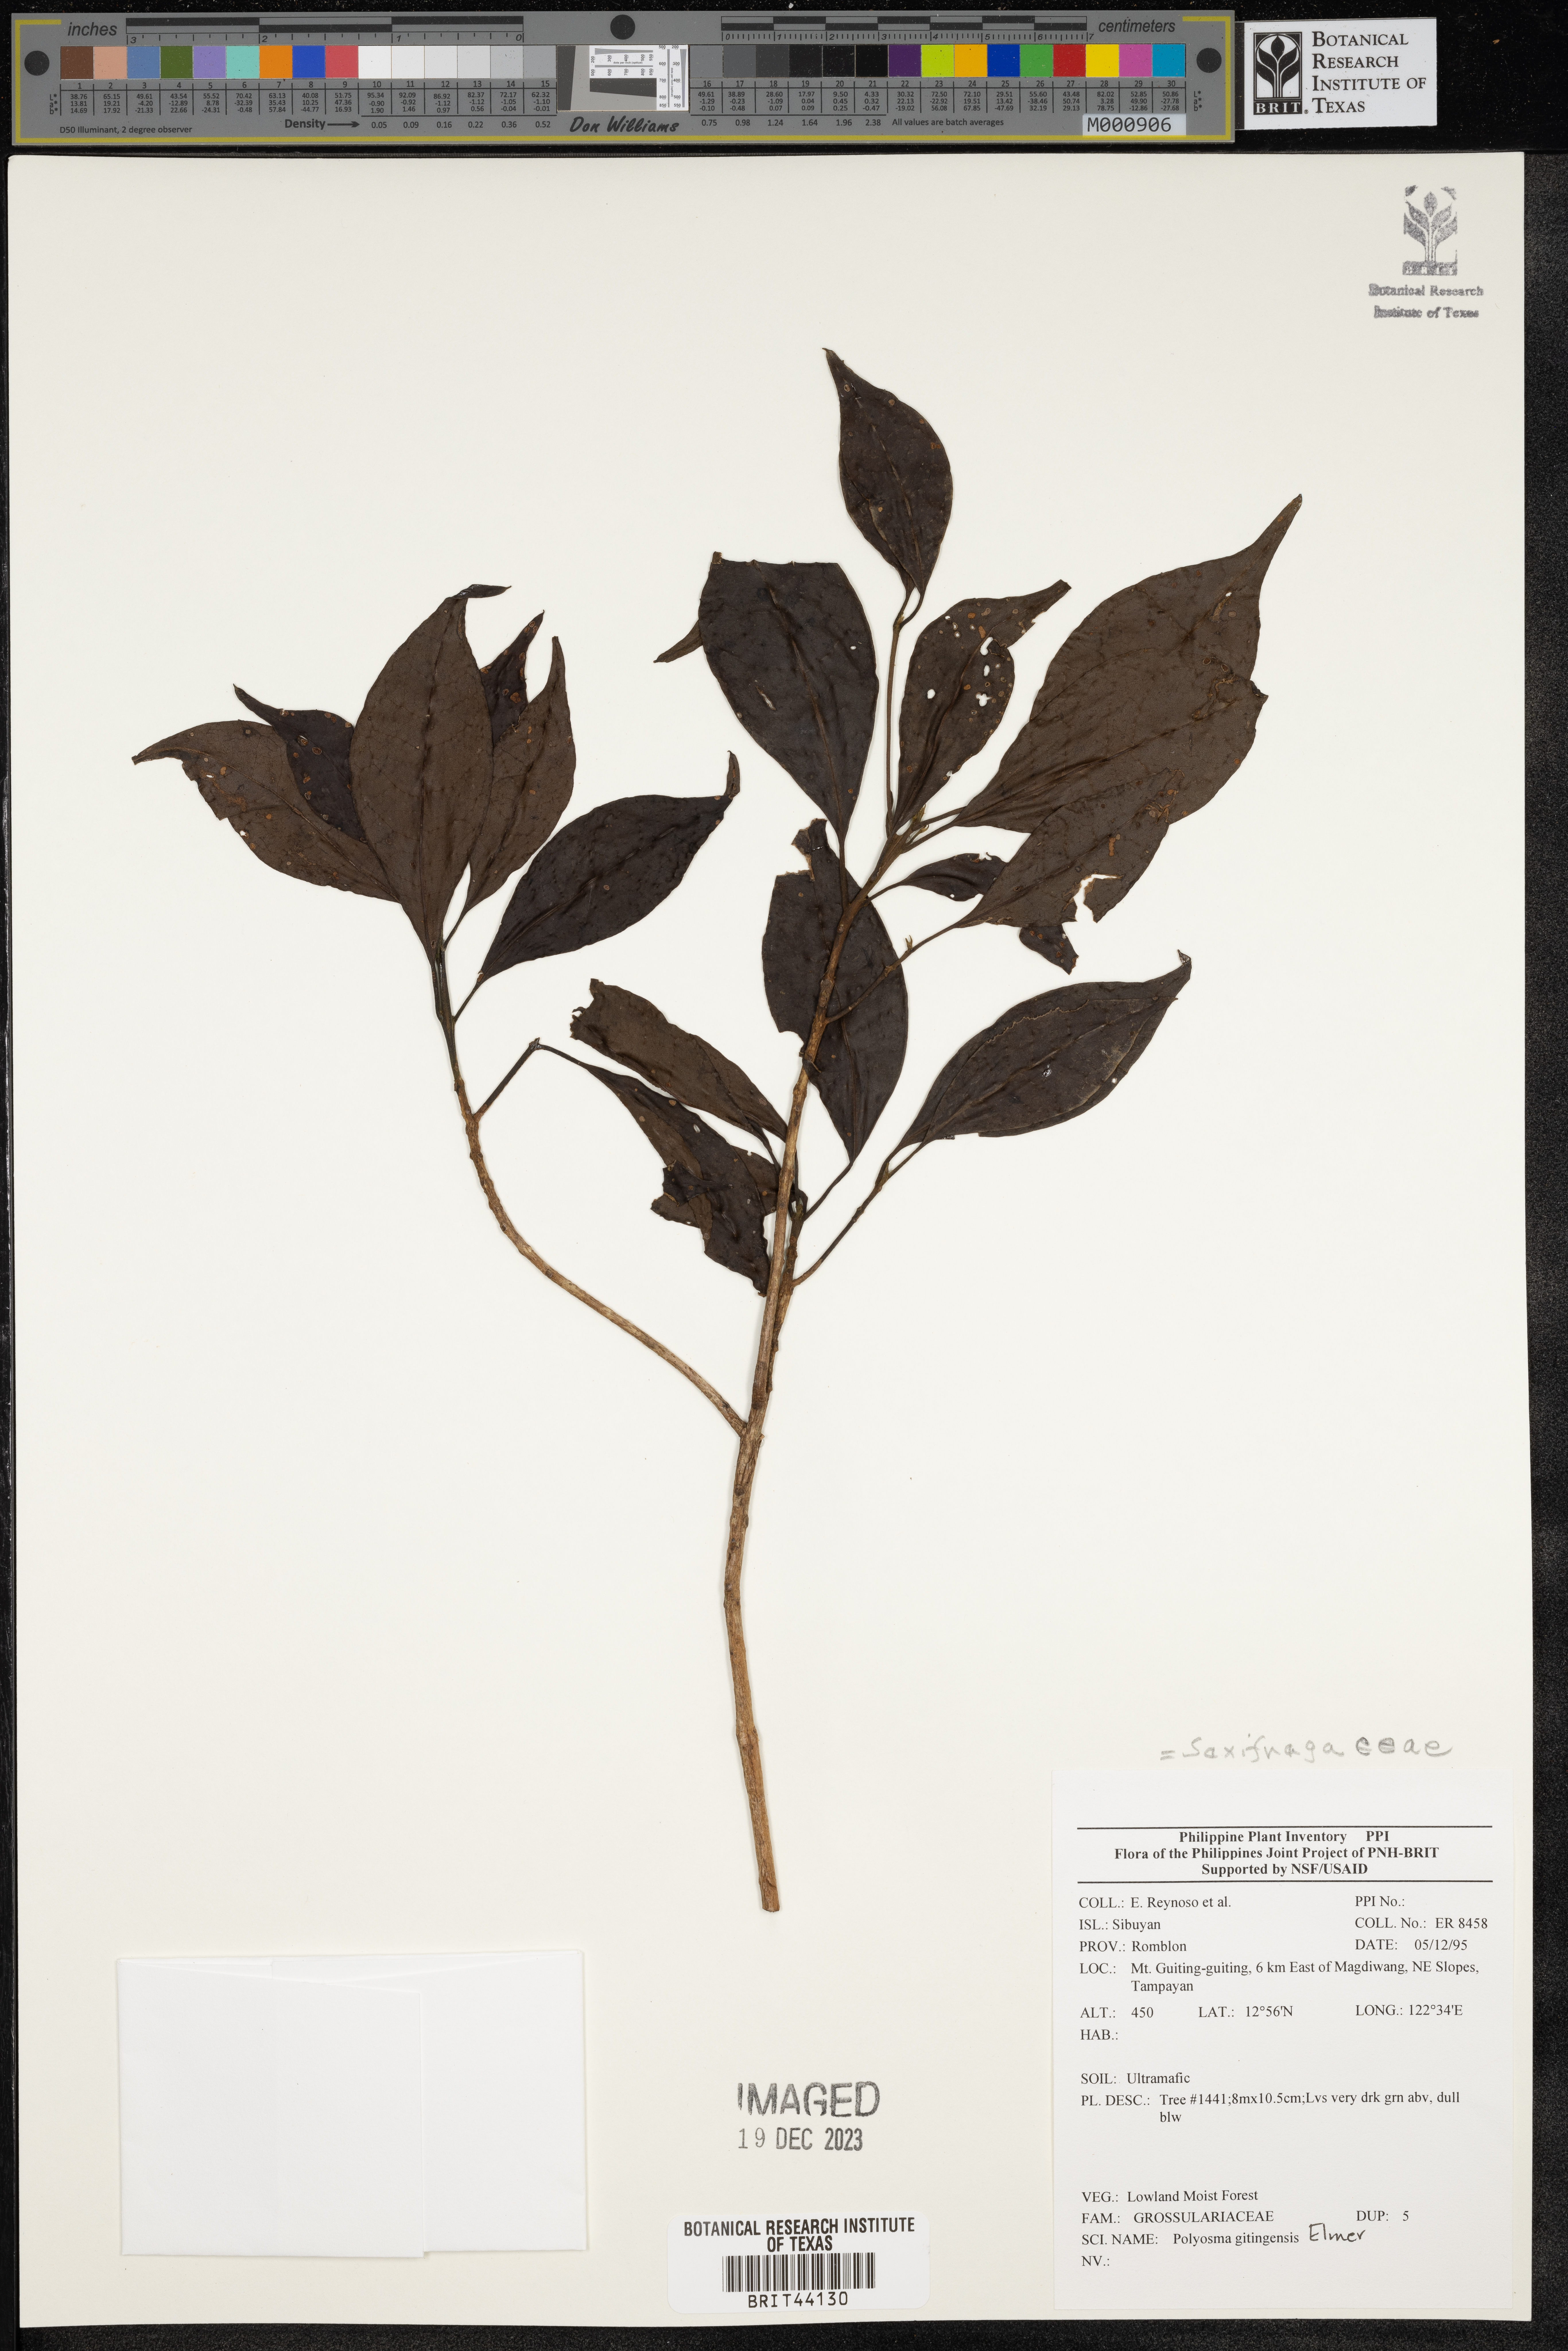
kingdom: Plantae
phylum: Tracheophyta
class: Magnoliopsida
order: Escalloniales
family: Escalloniaceae
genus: Polyosma
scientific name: Polyosma
